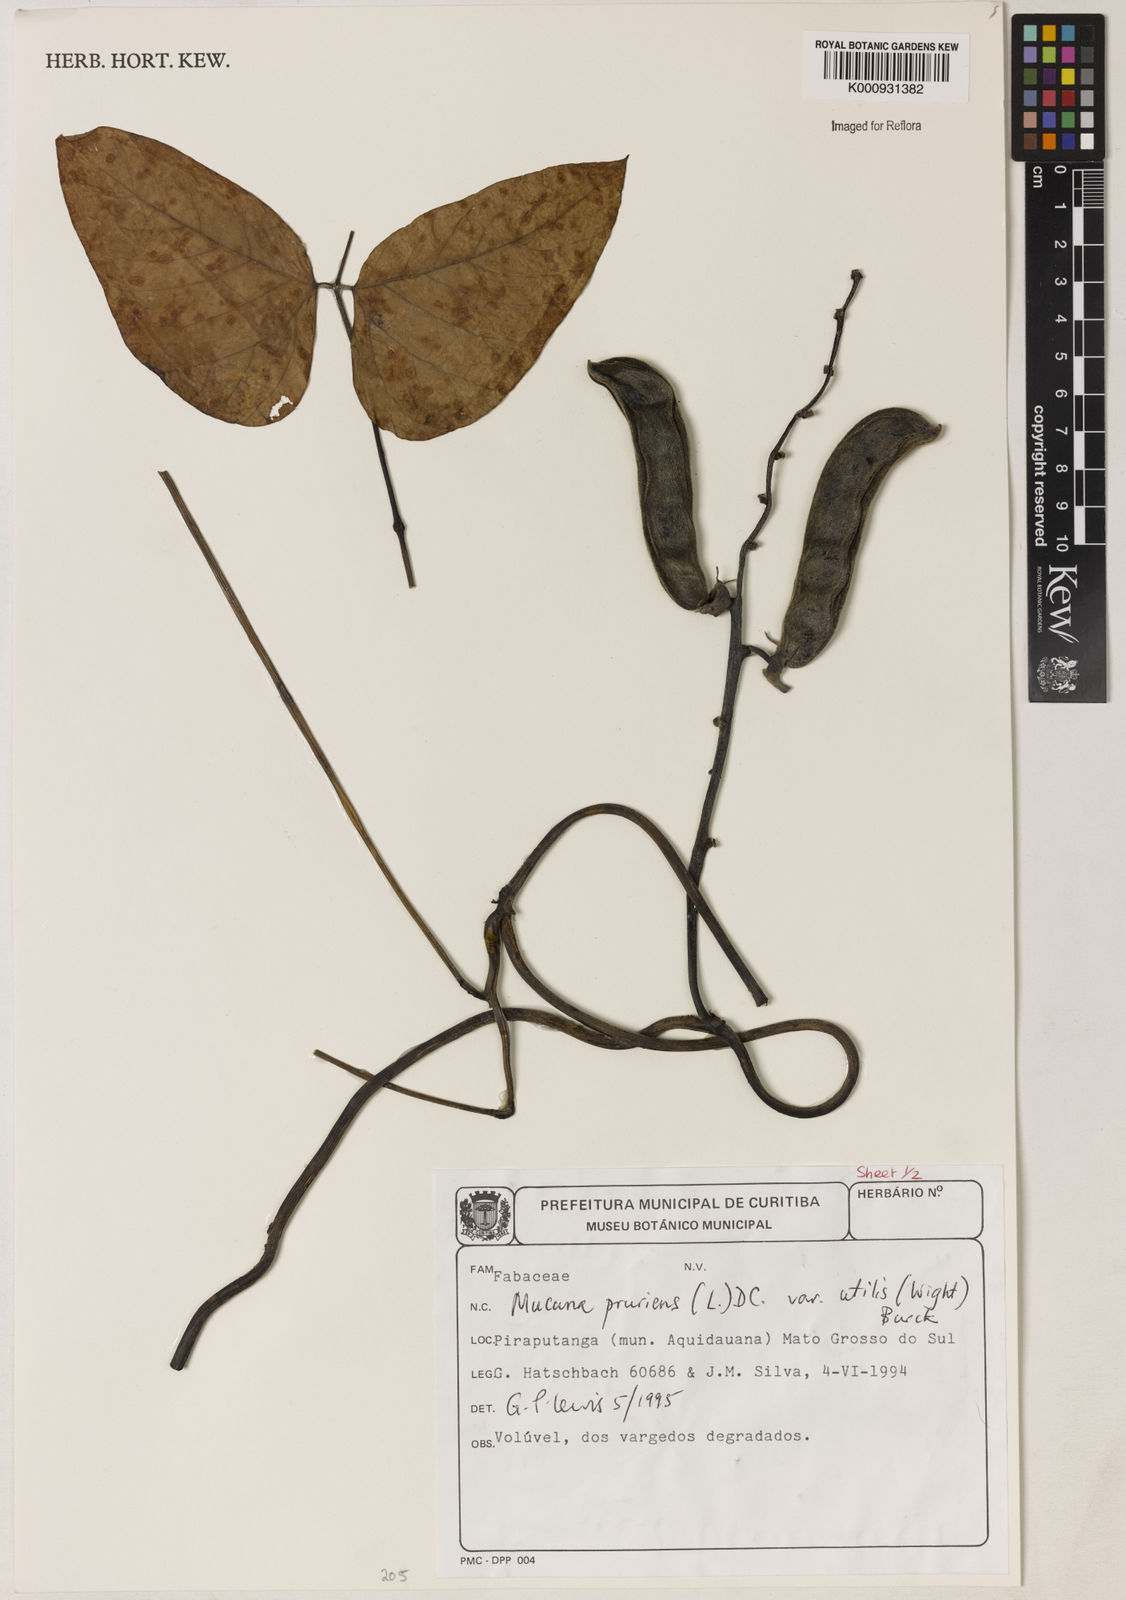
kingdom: Plantae
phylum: Tracheophyta
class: Magnoliopsida
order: Fabales
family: Fabaceae
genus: Mucuna
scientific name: Mucuna pruriens
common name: Cow-itch
